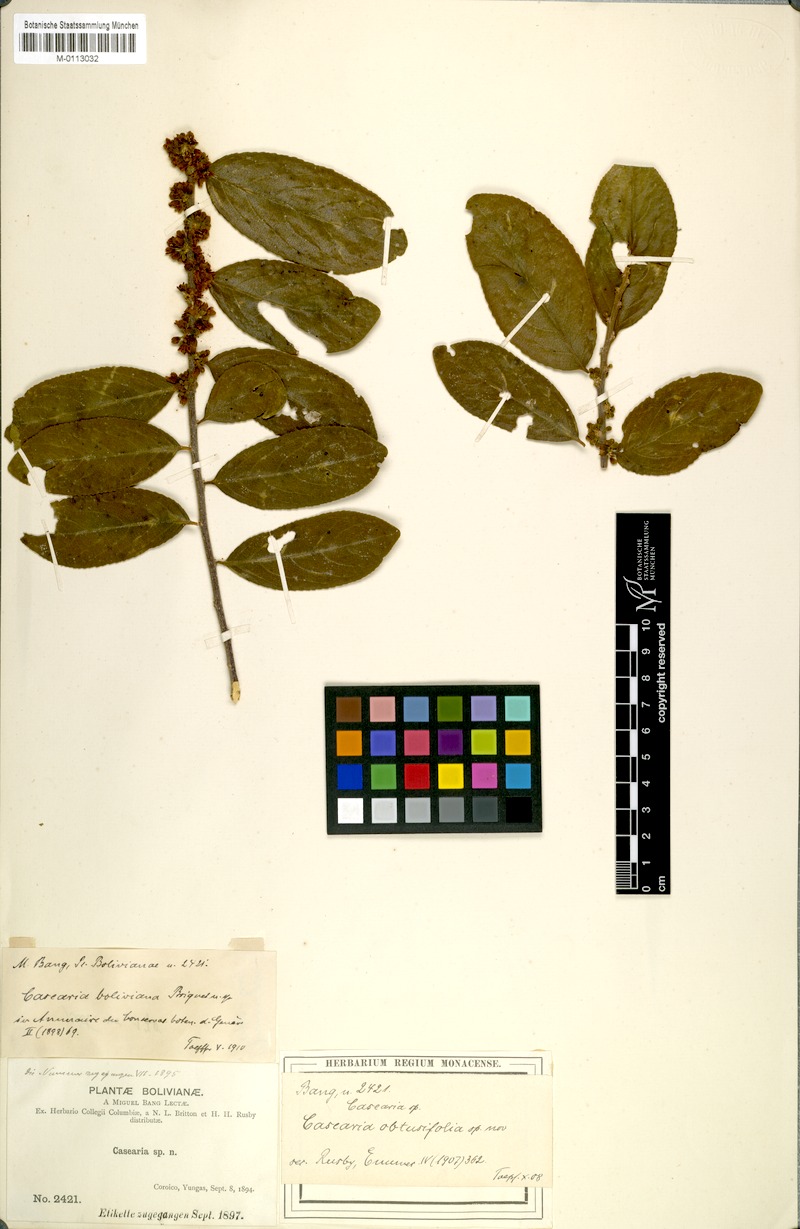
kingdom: Plantae
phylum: Tracheophyta
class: Magnoliopsida
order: Malpighiales
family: Salicaceae
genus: Casearia
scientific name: Casearia aculeata
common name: Cockspur
